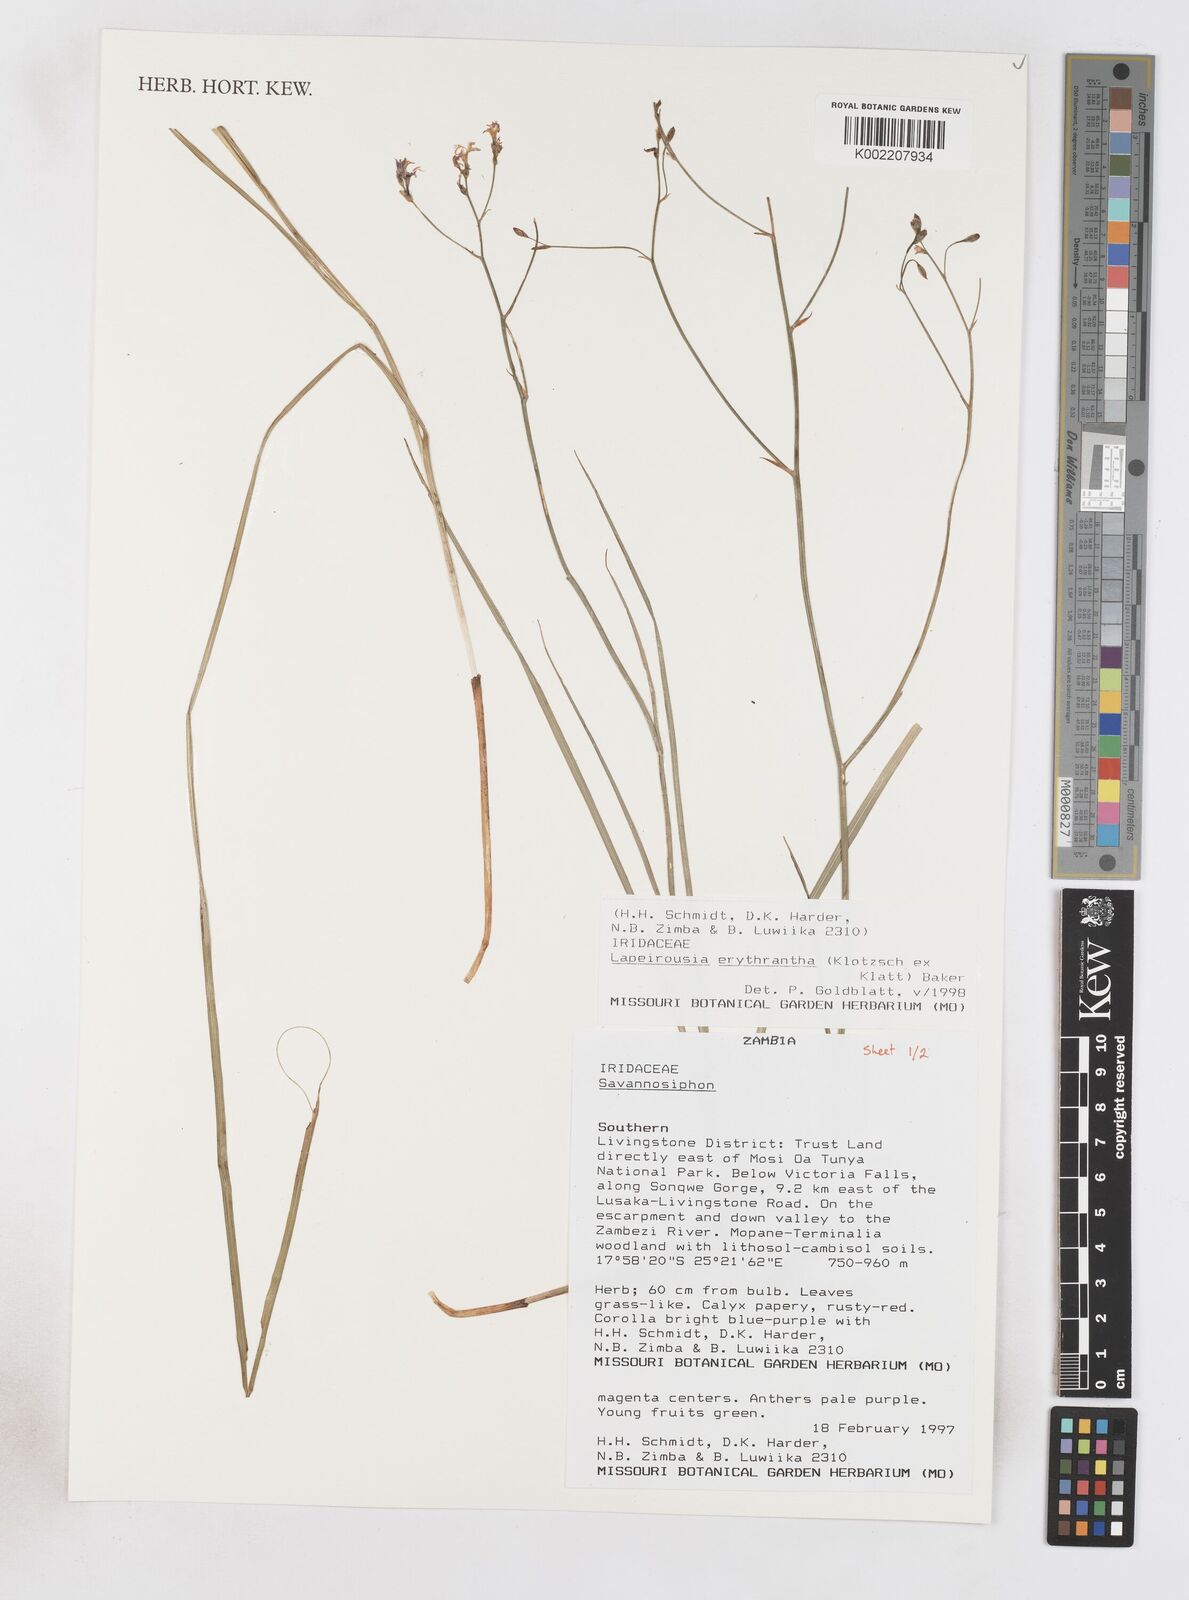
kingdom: Plantae
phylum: Tracheophyta
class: Liliopsida
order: Asparagales
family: Iridaceae
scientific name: Iridaceae
